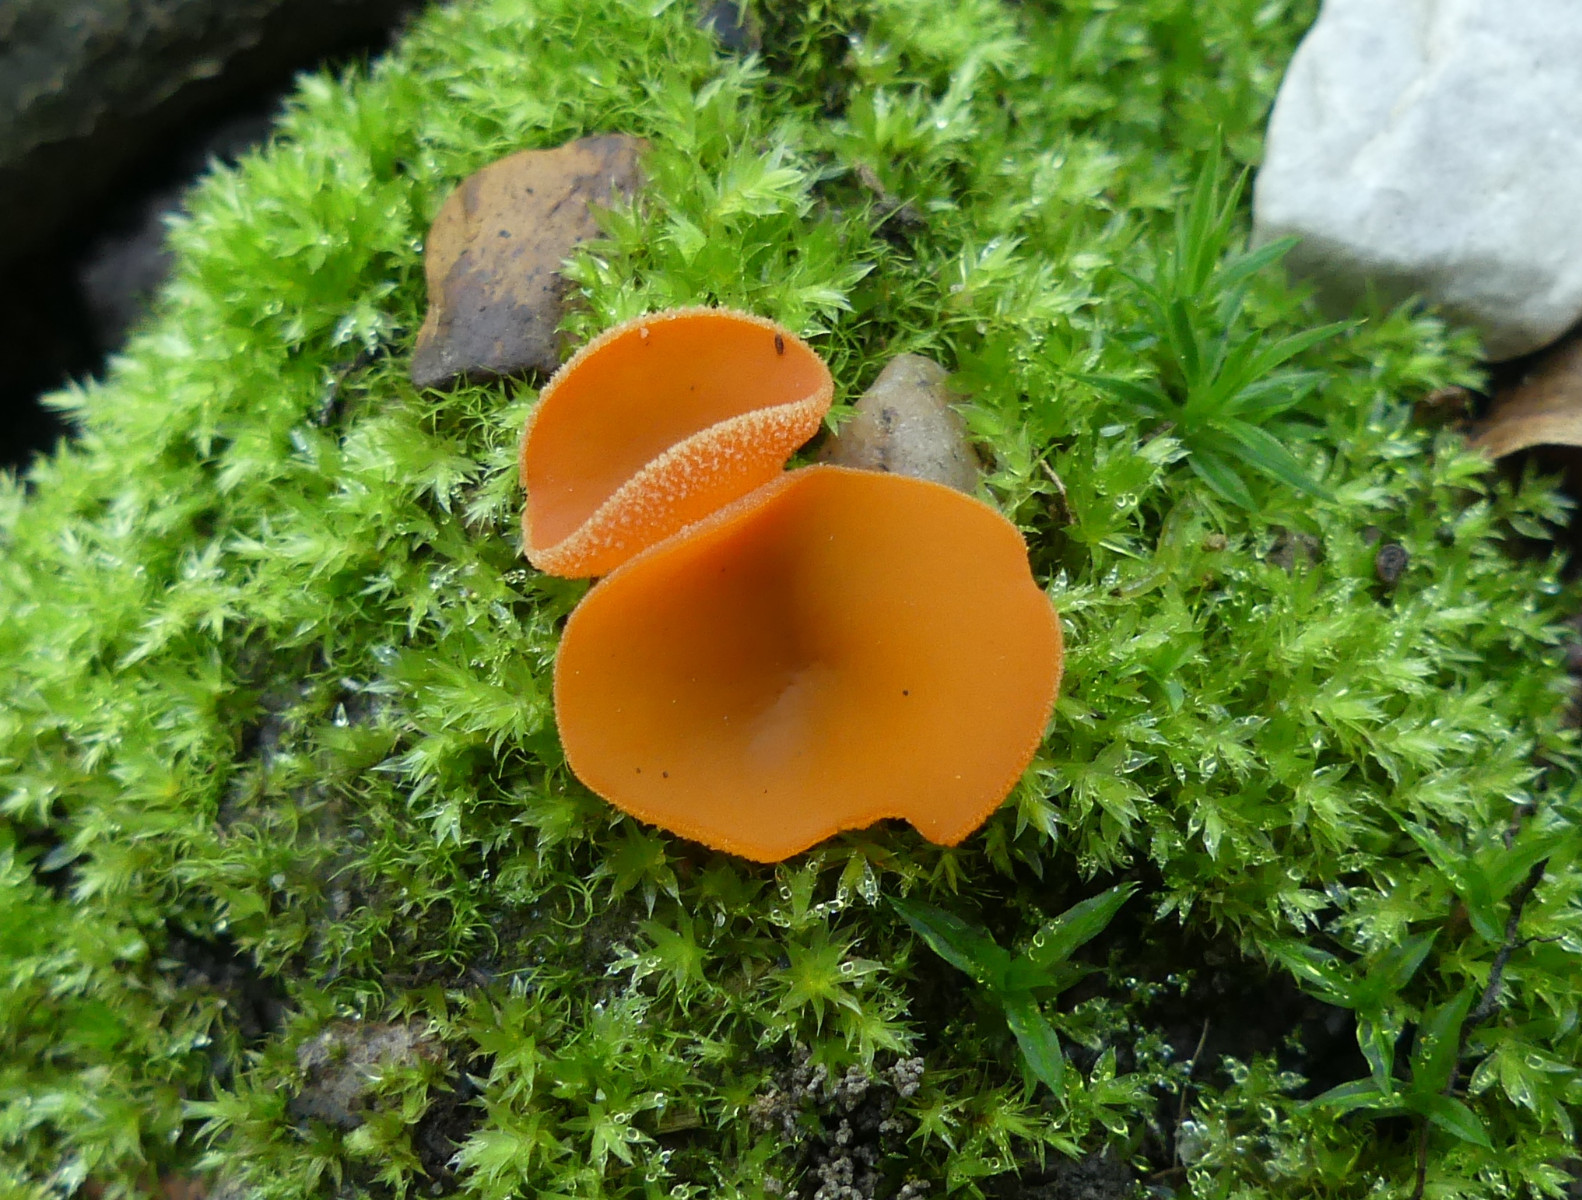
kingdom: Fungi
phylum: Ascomycota
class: Pezizomycetes
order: Pezizales
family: Pyronemataceae
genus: Aleuria
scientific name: Aleuria aurantia
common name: almindelig orangebæger
